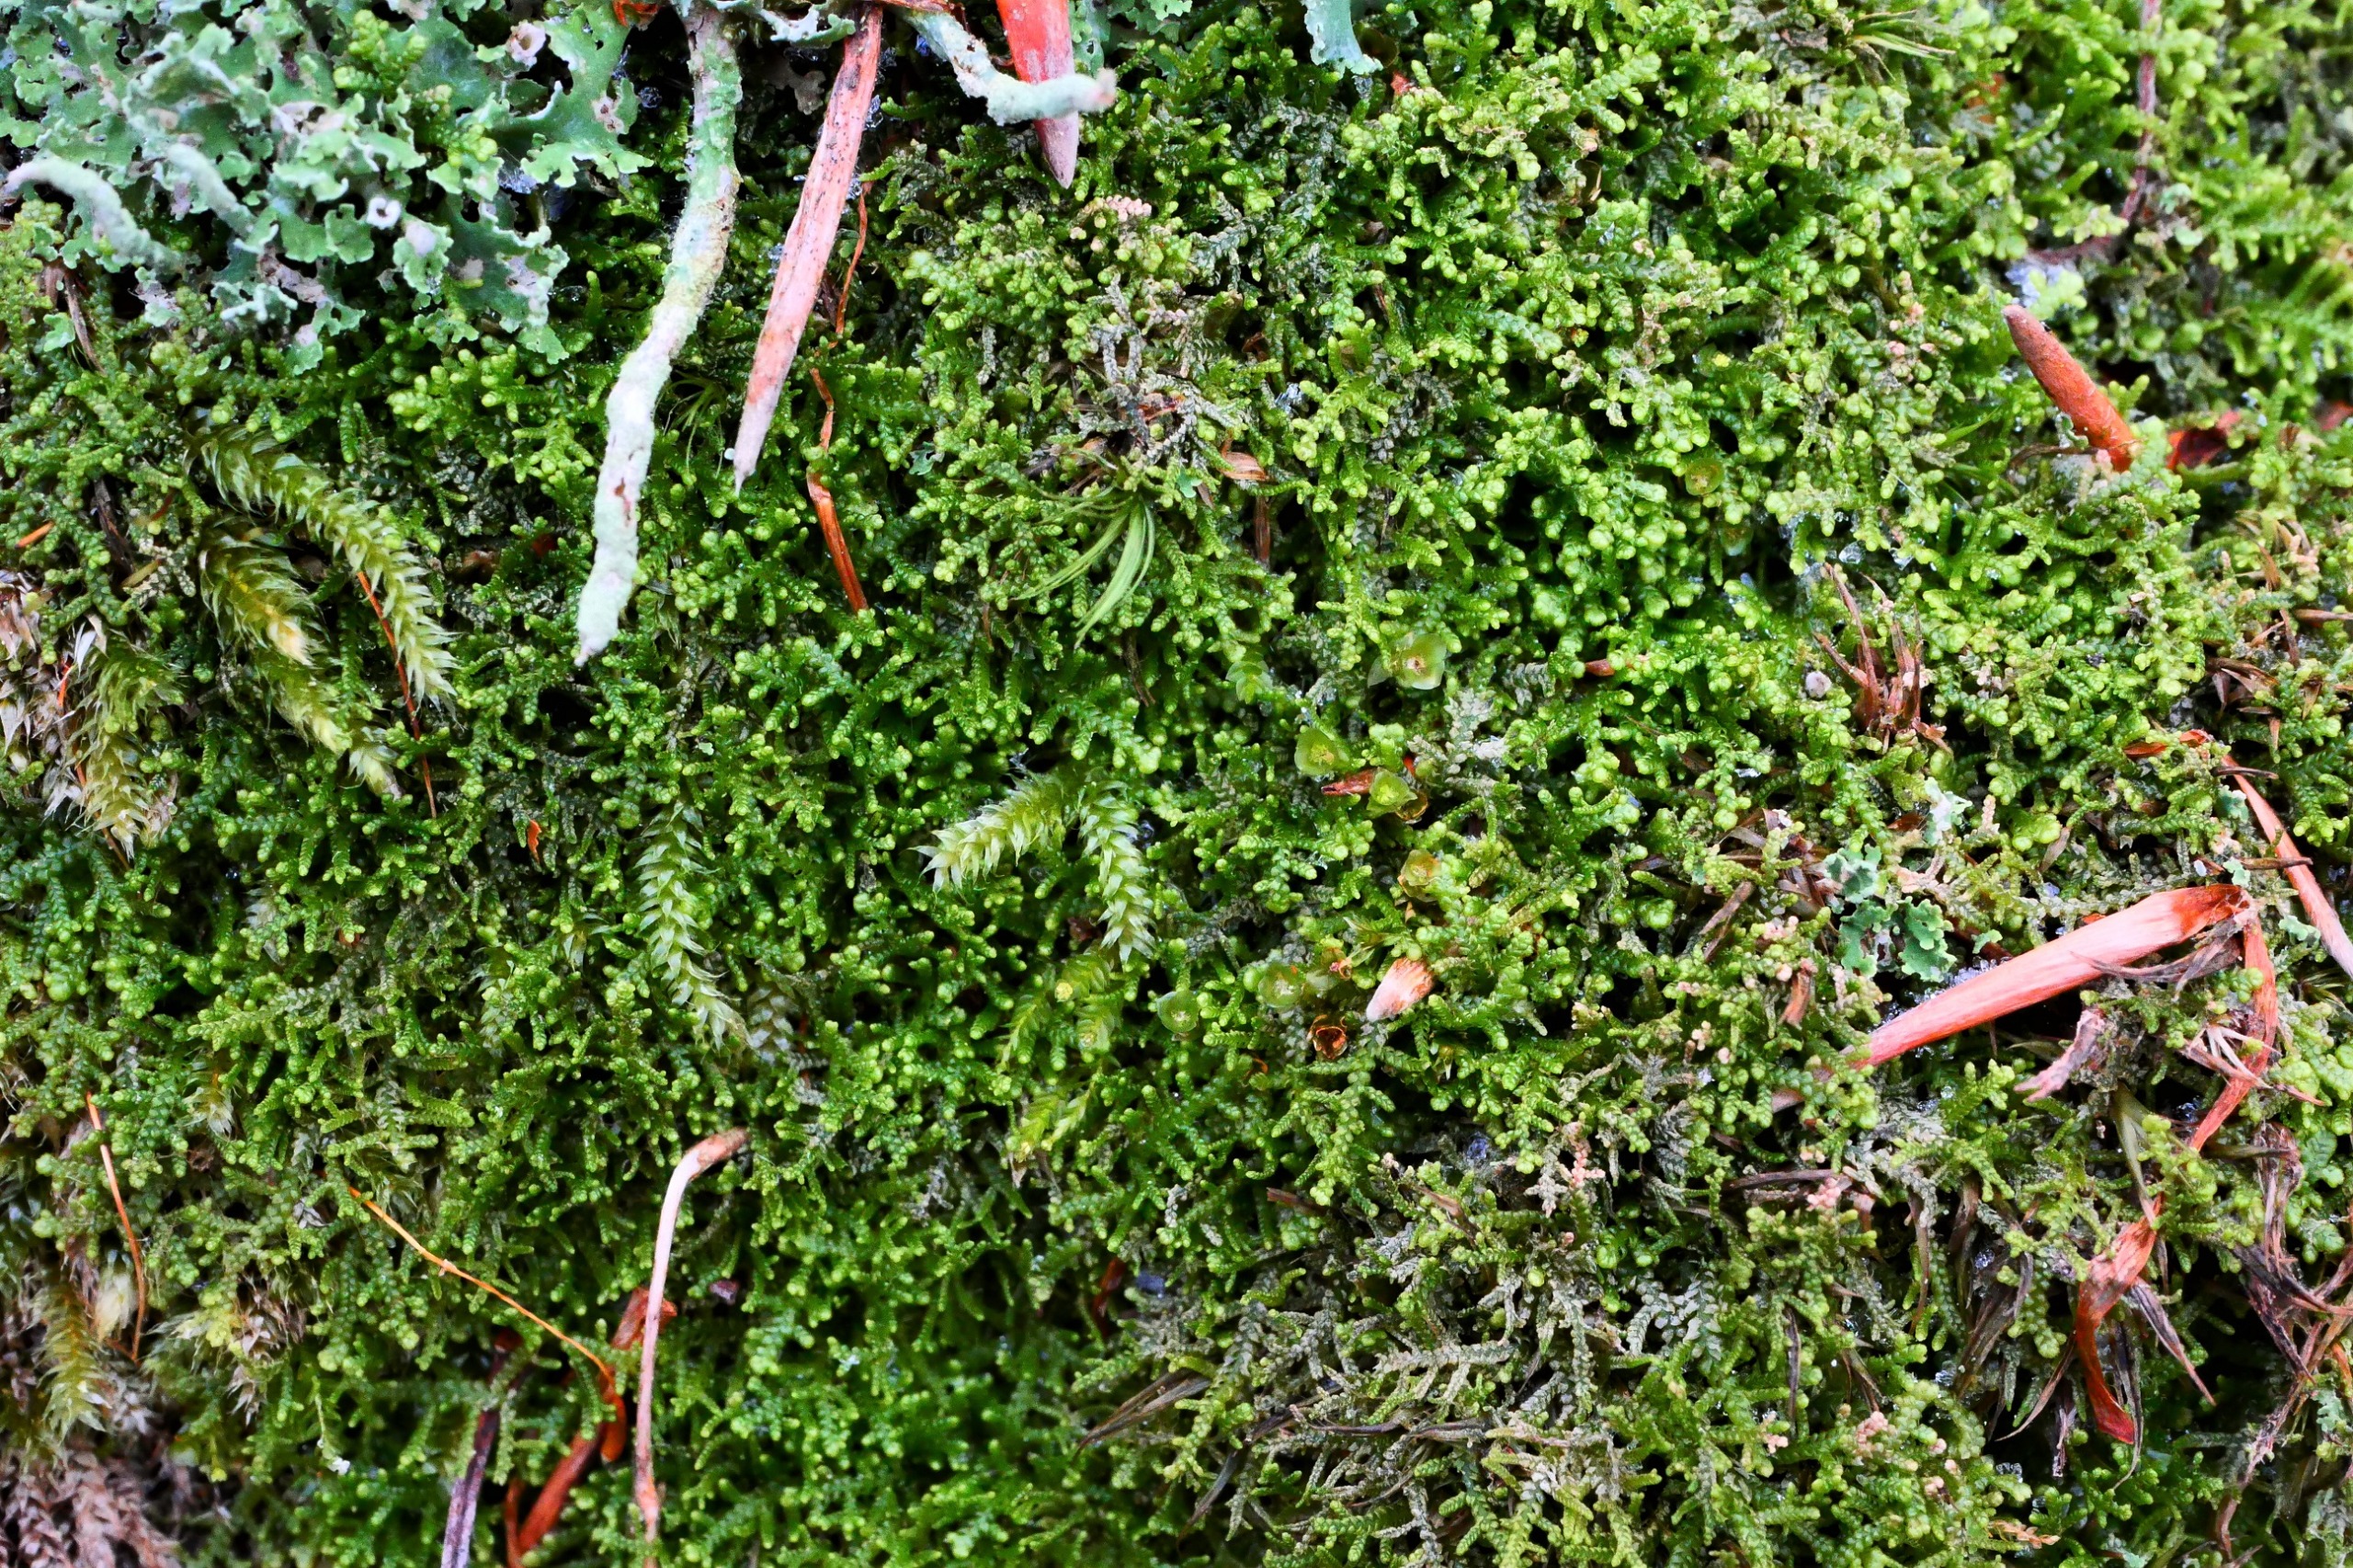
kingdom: Plantae
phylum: Marchantiophyta
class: Jungermanniopsida
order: Jungermanniales
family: Lepidoziaceae
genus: Lepidozia
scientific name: Lepidozia reptans
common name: Krybende fingermos
